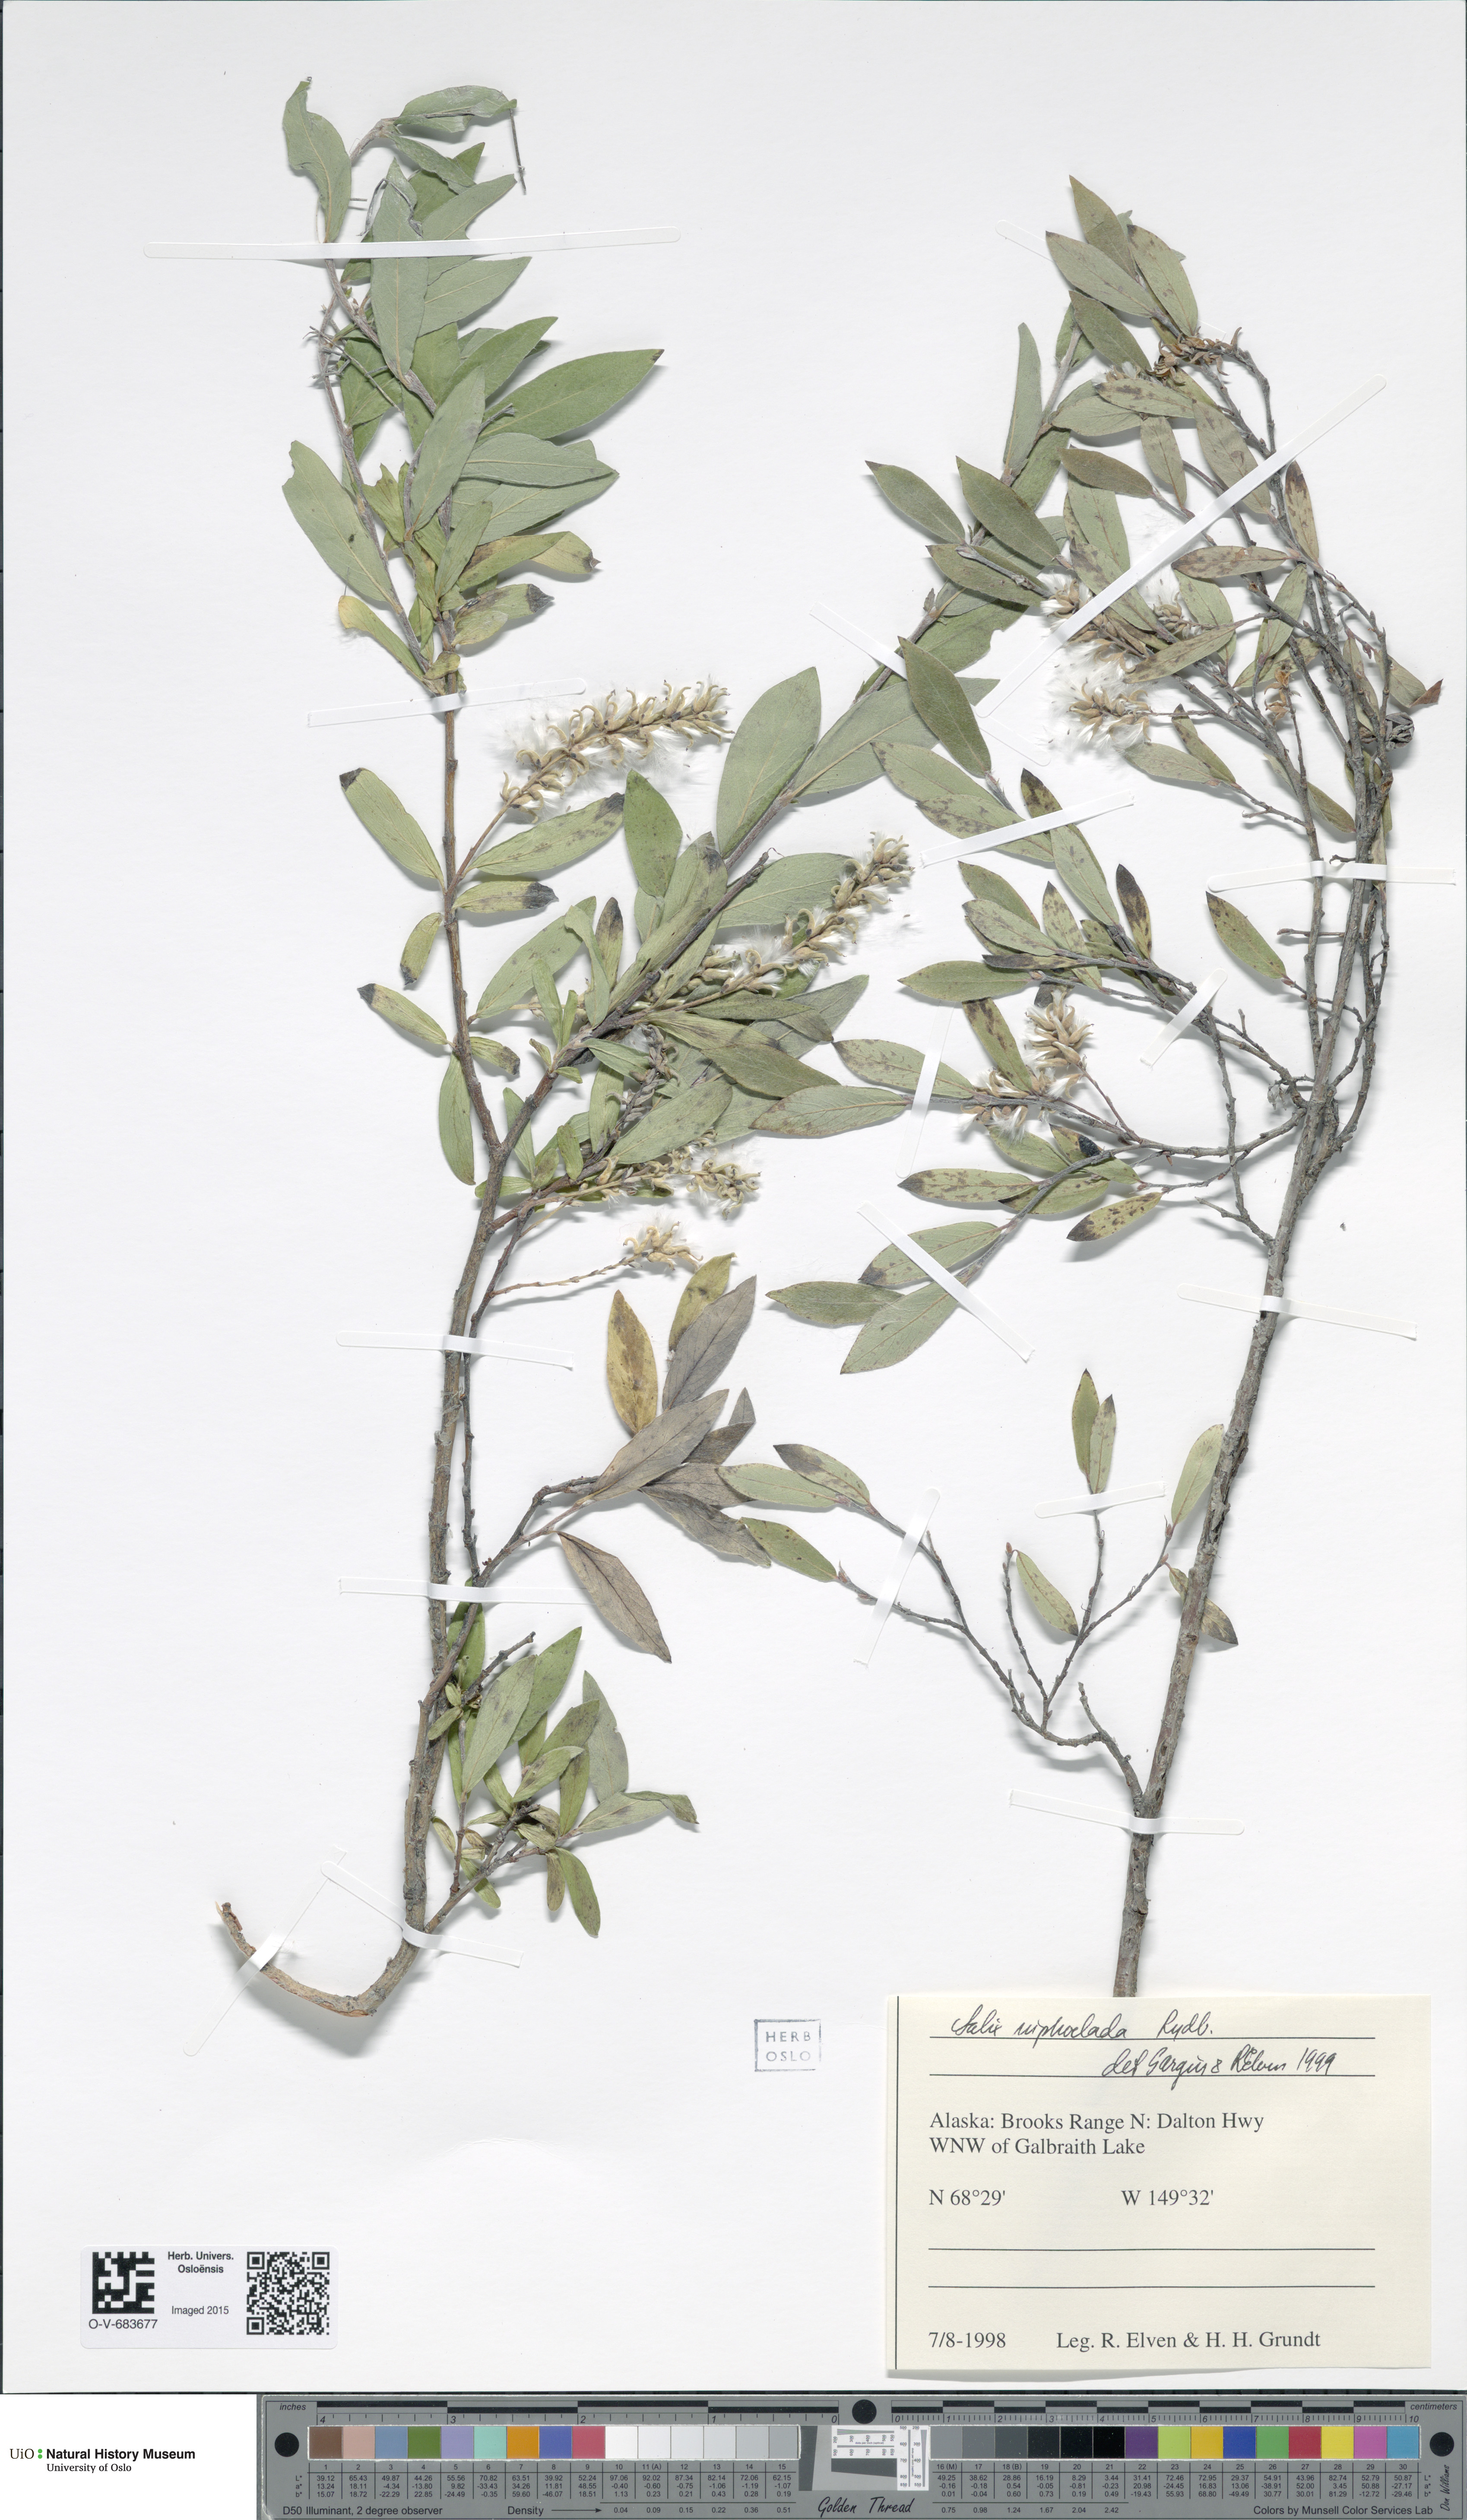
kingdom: Plantae
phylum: Tracheophyta
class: Magnoliopsida
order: Malpighiales
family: Salicaceae
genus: Salix
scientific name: Salix niphoclada
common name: Barren-ground willow
